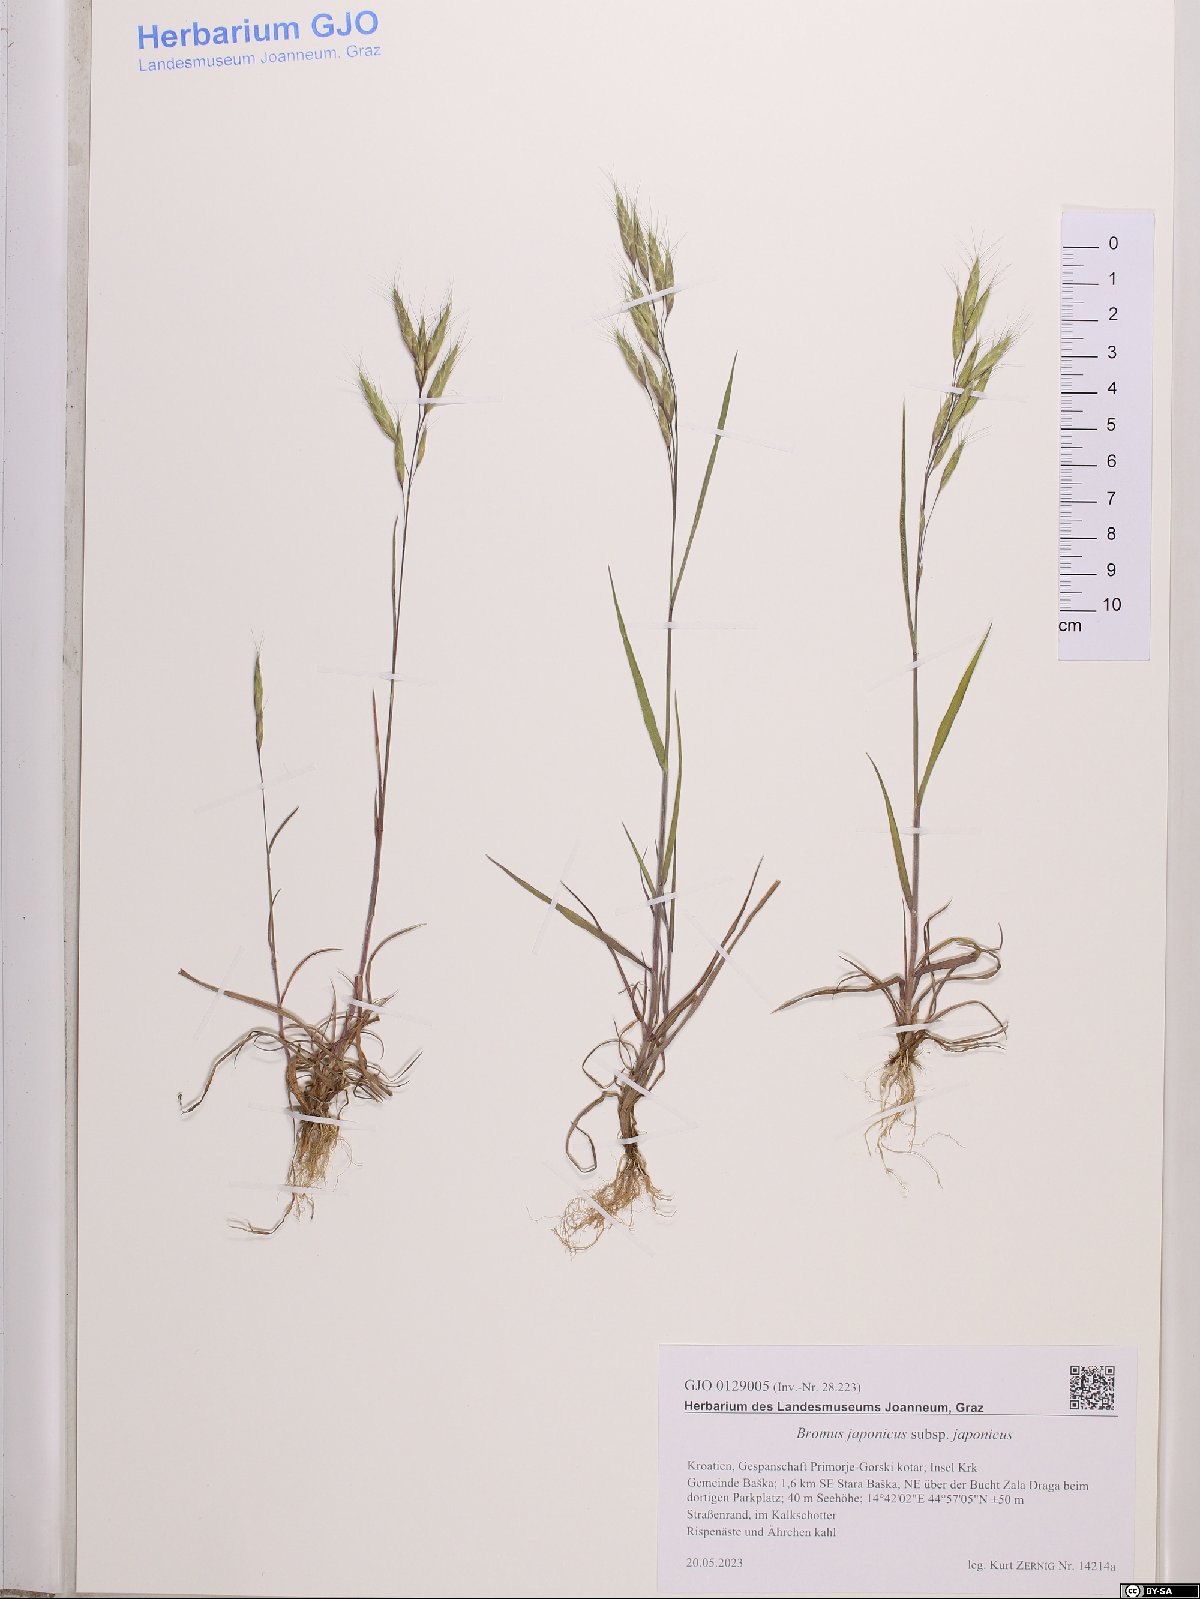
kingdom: Plantae
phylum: Tracheophyta
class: Liliopsida
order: Poales
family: Poaceae
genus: Bromus
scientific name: Bromus japonicus
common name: Japanese brome
